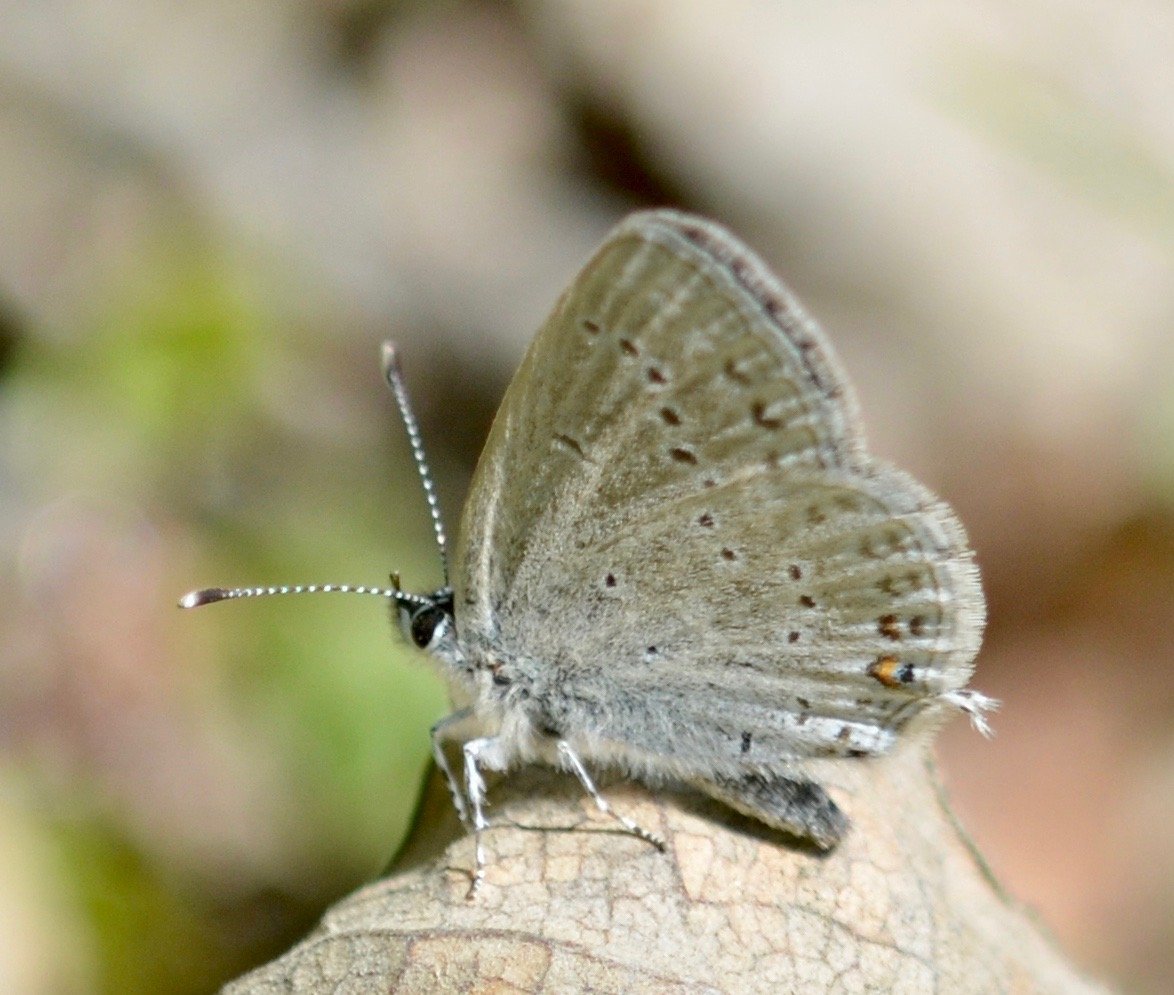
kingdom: Animalia
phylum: Arthropoda
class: Insecta
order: Lepidoptera
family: Lycaenidae
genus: Elkalyce
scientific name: Elkalyce amyntula
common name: Western Tailed-Blue
